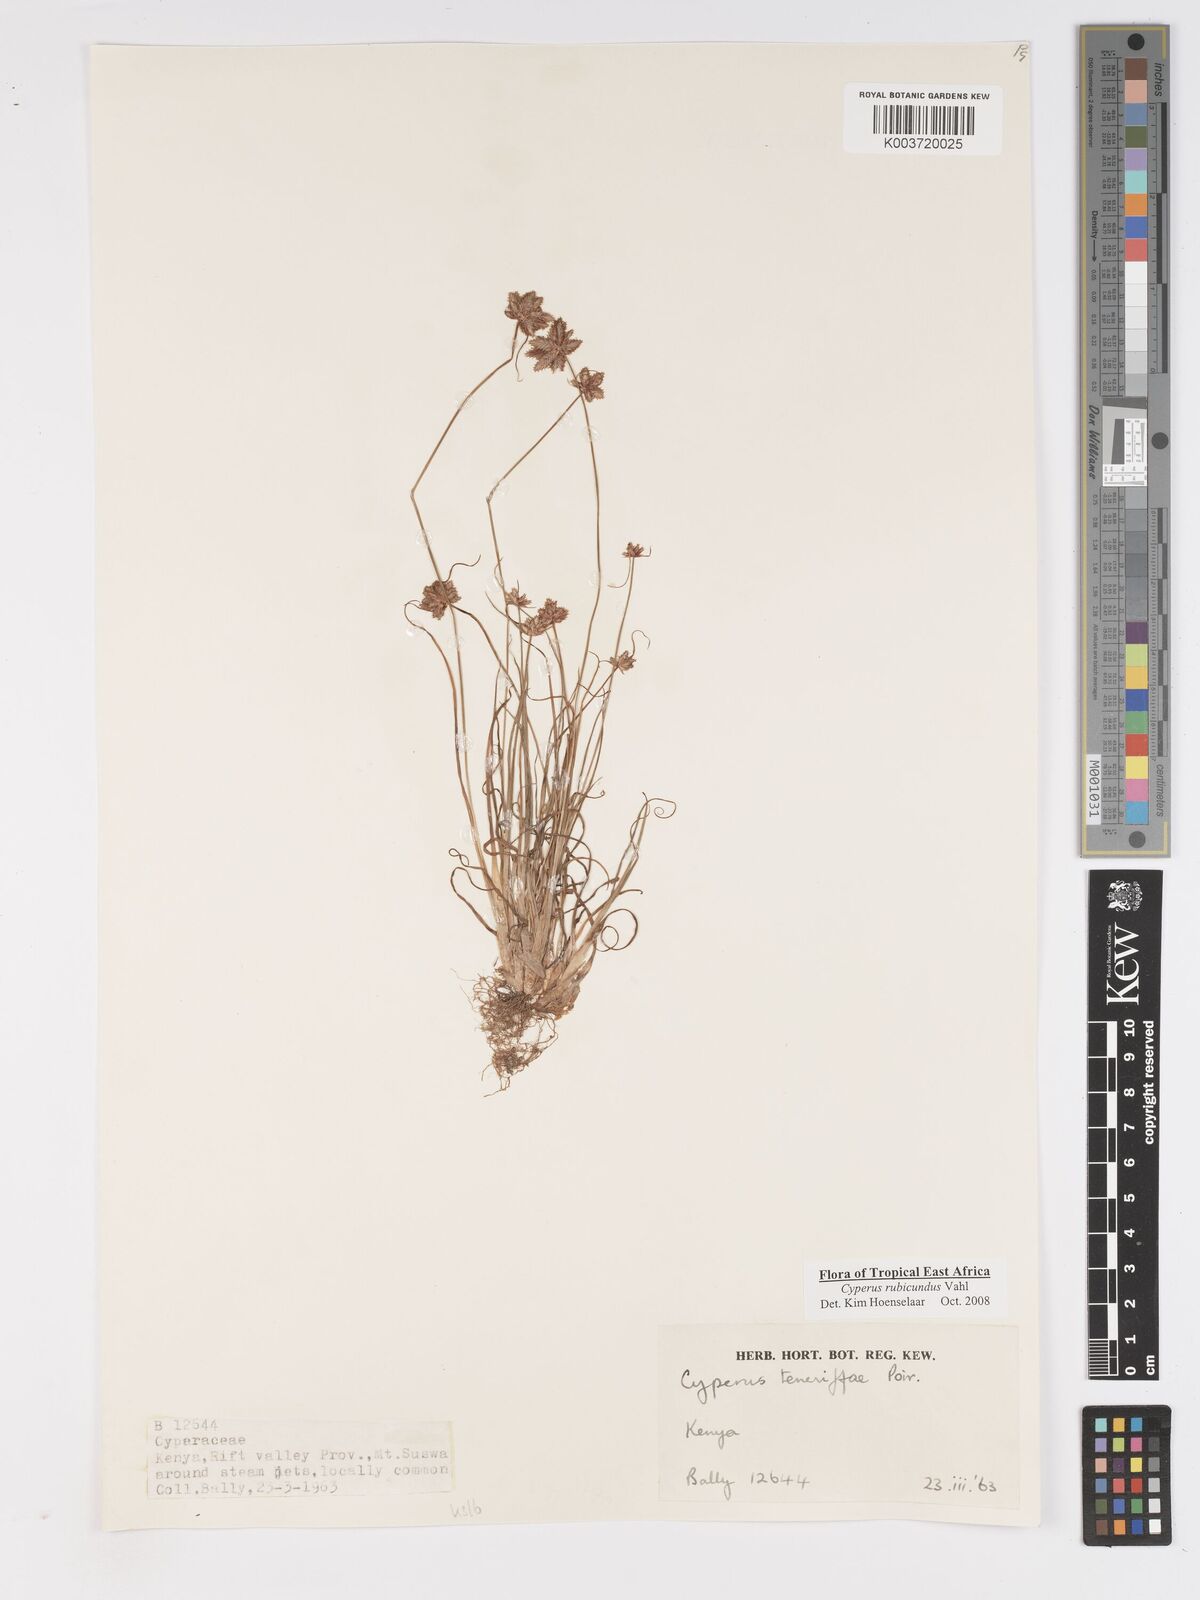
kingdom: Plantae
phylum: Tracheophyta
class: Liliopsida
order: Poales
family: Cyperaceae
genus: Cyperus
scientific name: Cyperus rubicundus
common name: Coco-grass
